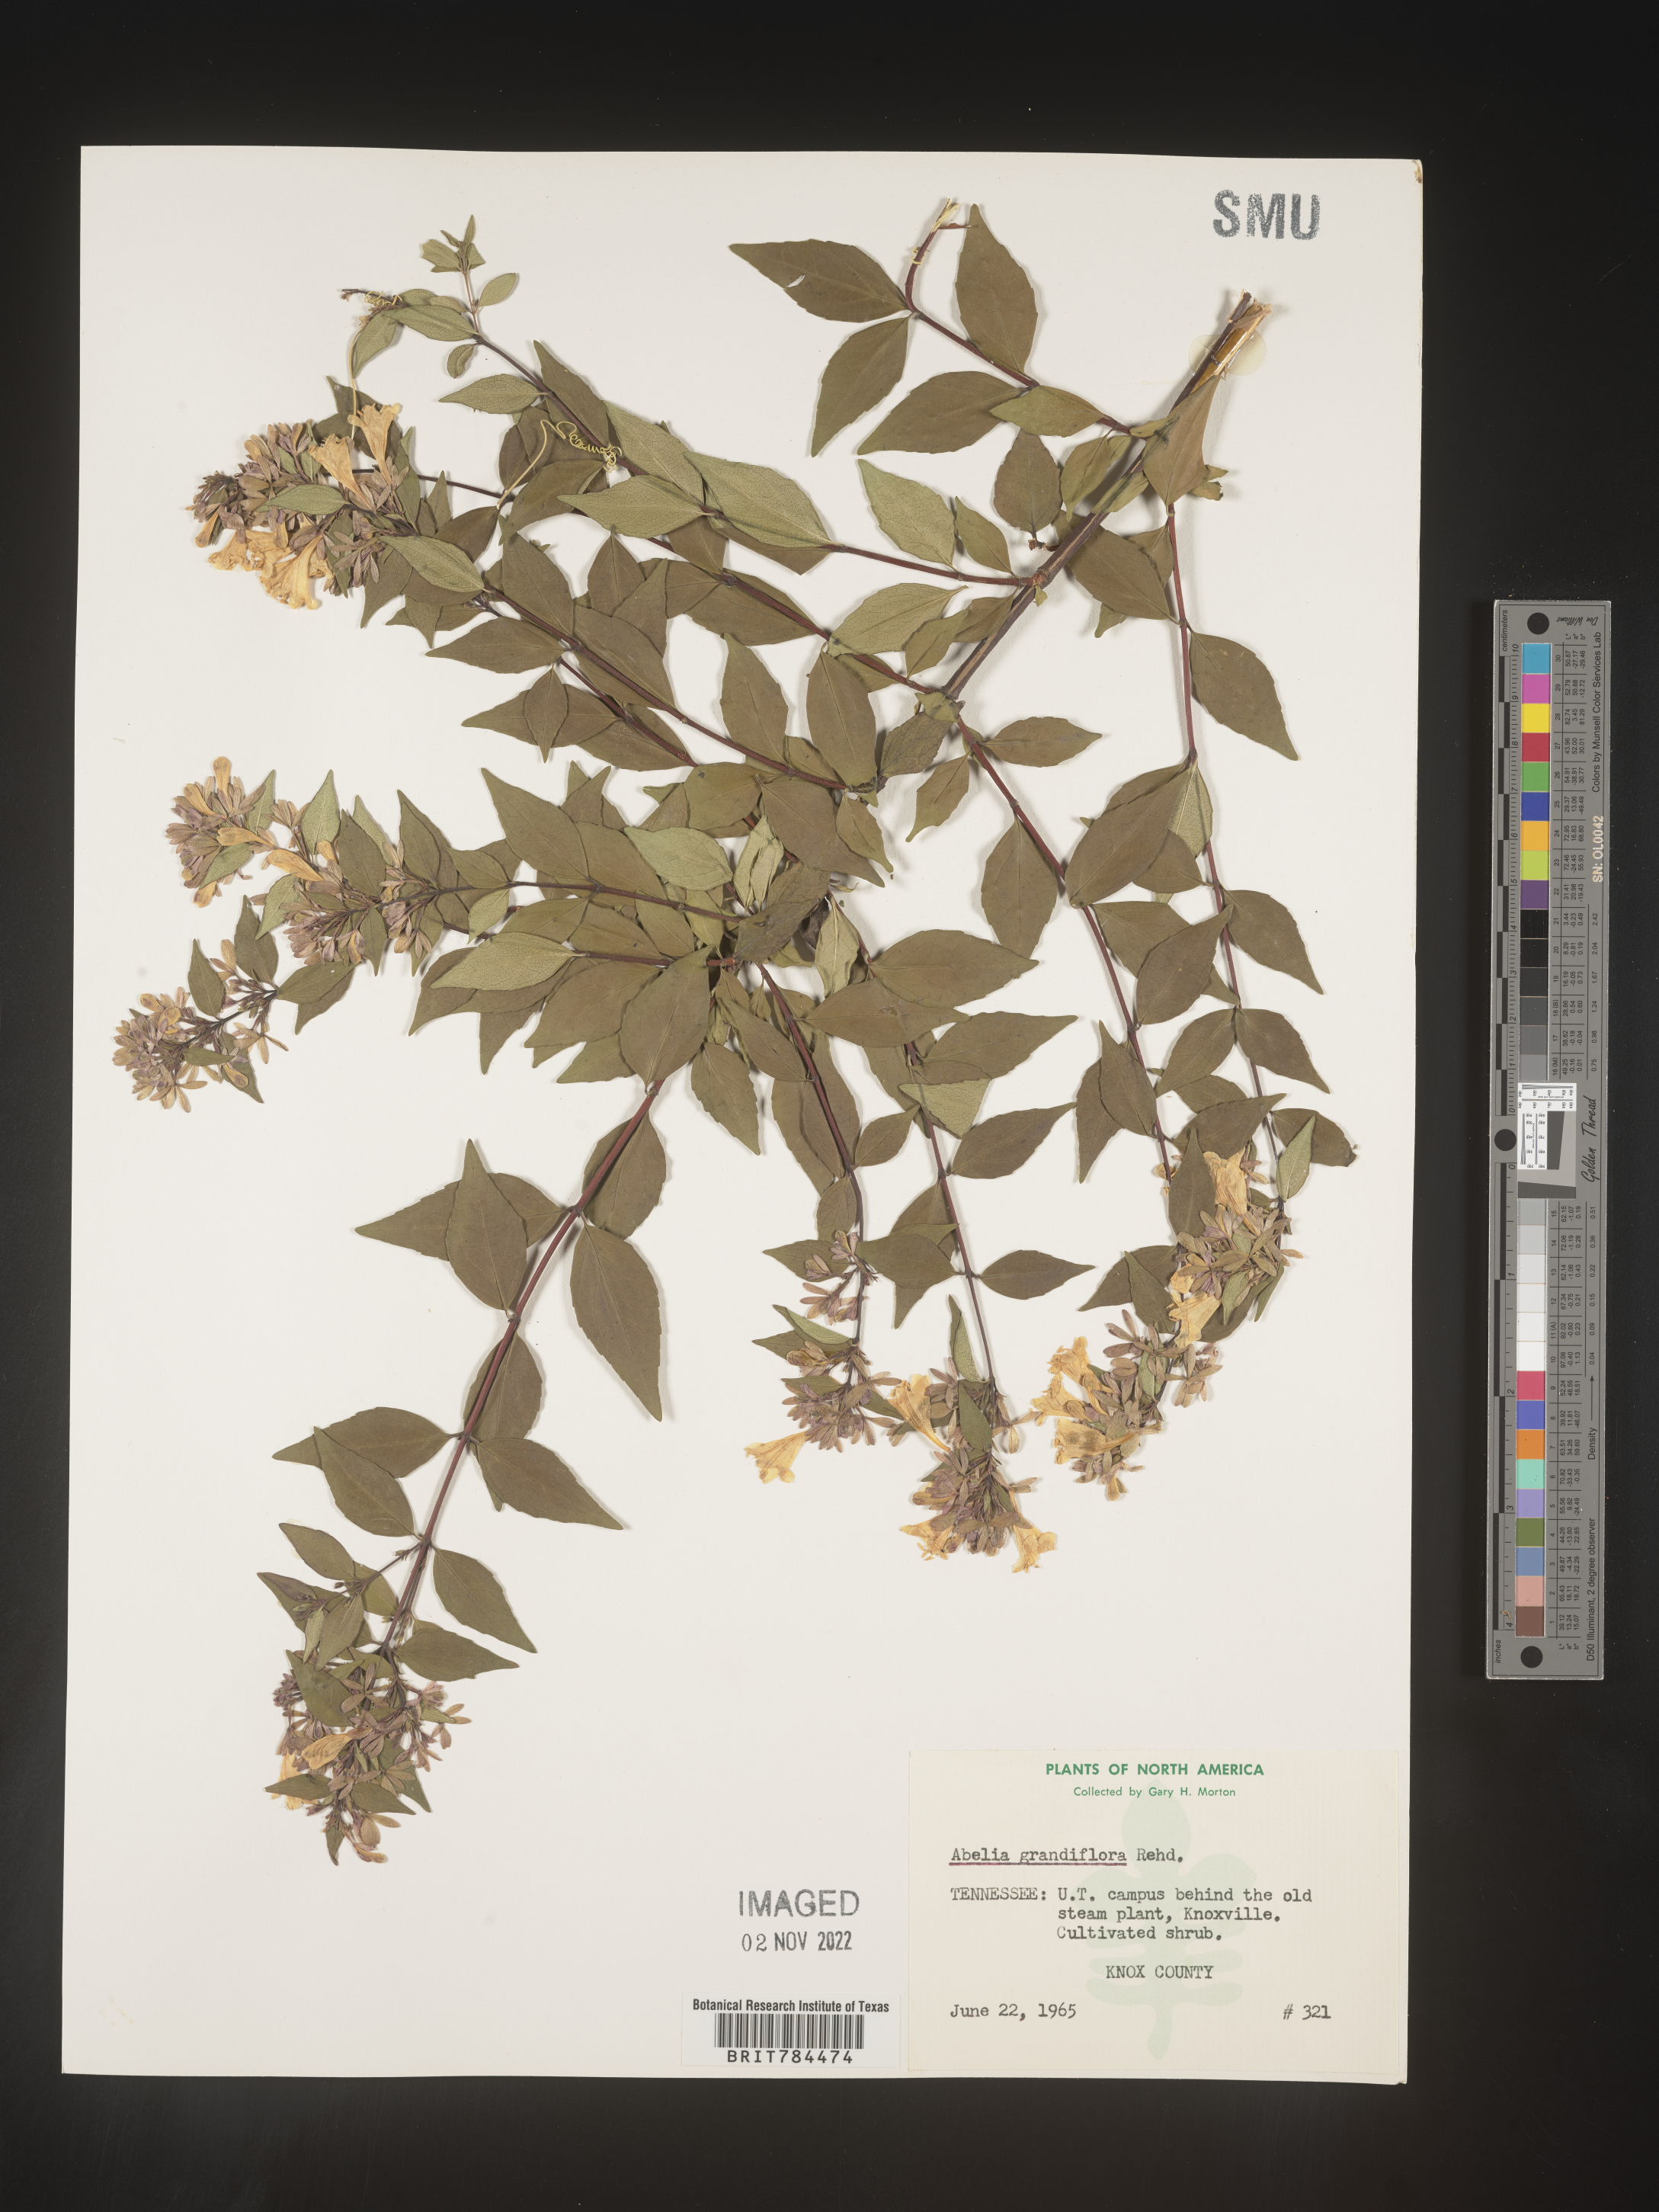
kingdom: Plantae
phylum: Tracheophyta
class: Magnoliopsida
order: Dipsacales
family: Caprifoliaceae
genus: Abelia
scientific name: Abelia
